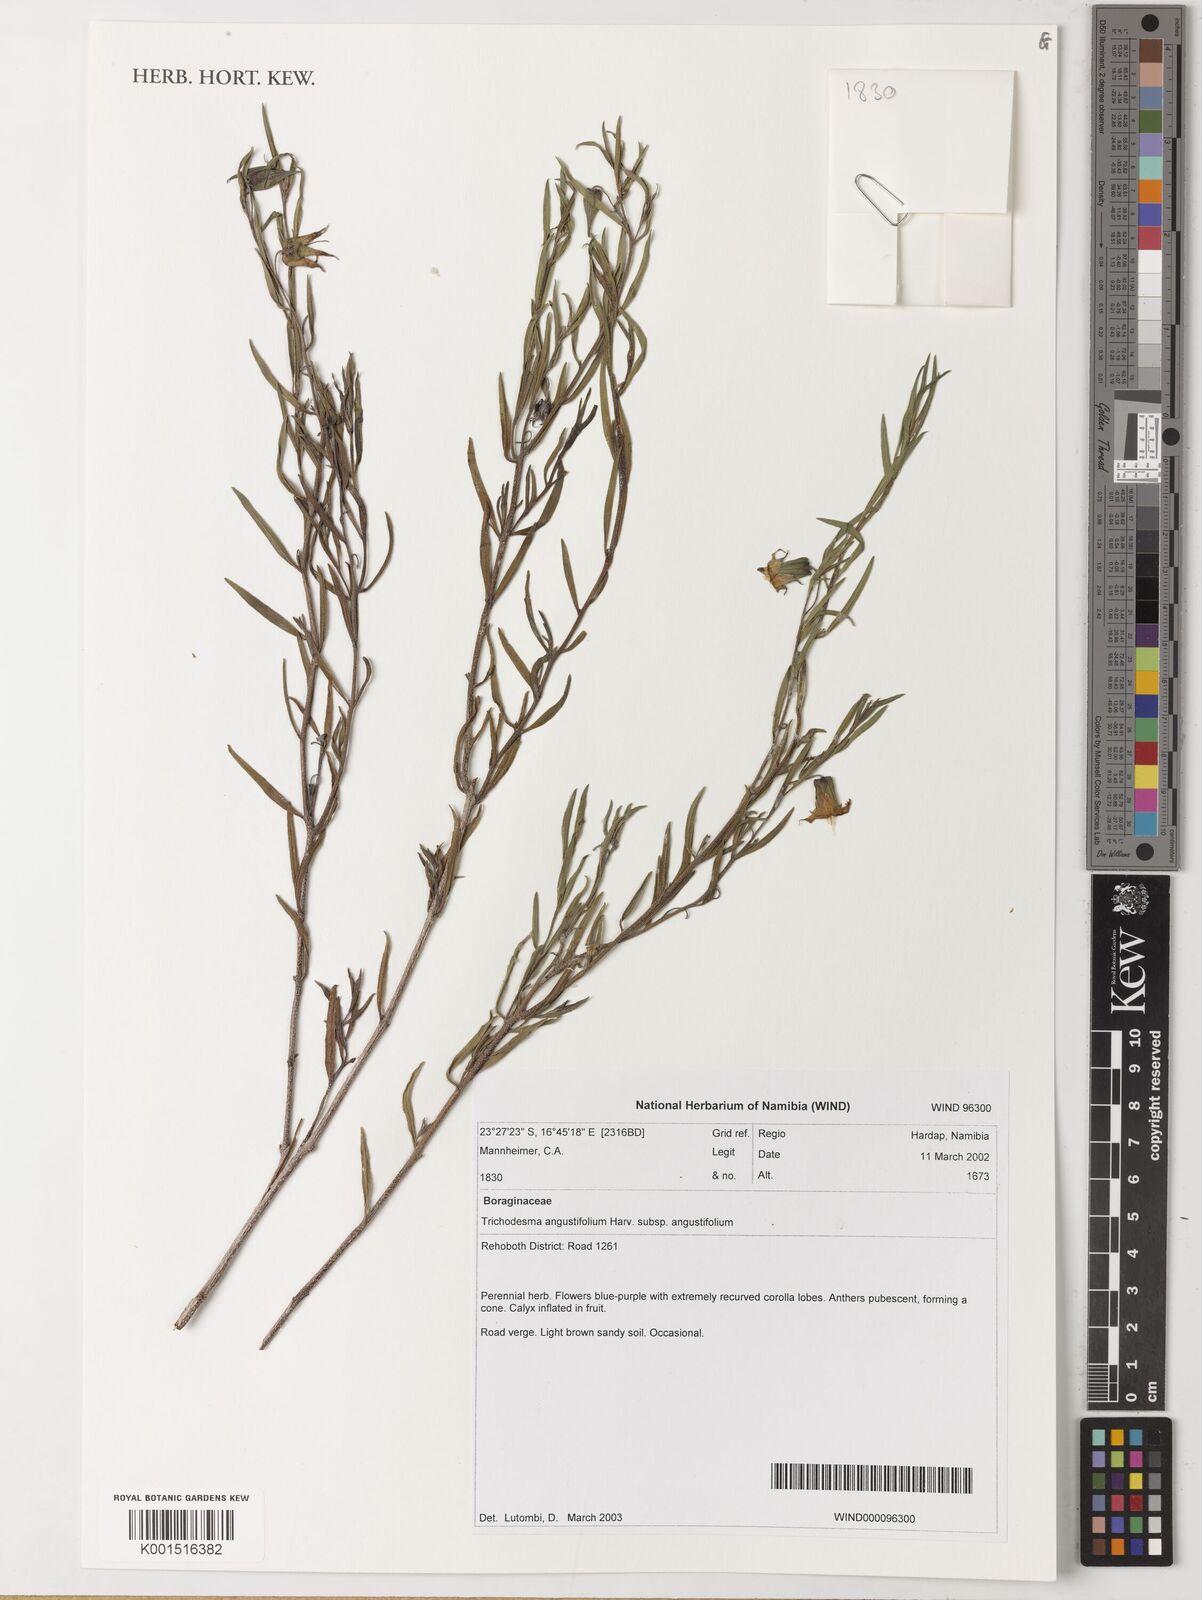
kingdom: Plantae
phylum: Tracheophyta
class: Magnoliopsida
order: Boraginales
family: Boraginaceae
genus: Trichodesma
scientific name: Trichodesma angustifolium
